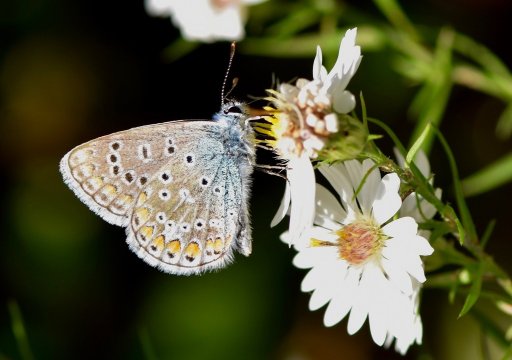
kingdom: Animalia
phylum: Arthropoda
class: Insecta
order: Lepidoptera
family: Lycaenidae
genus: Polyommatus
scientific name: Polyommatus icarus
